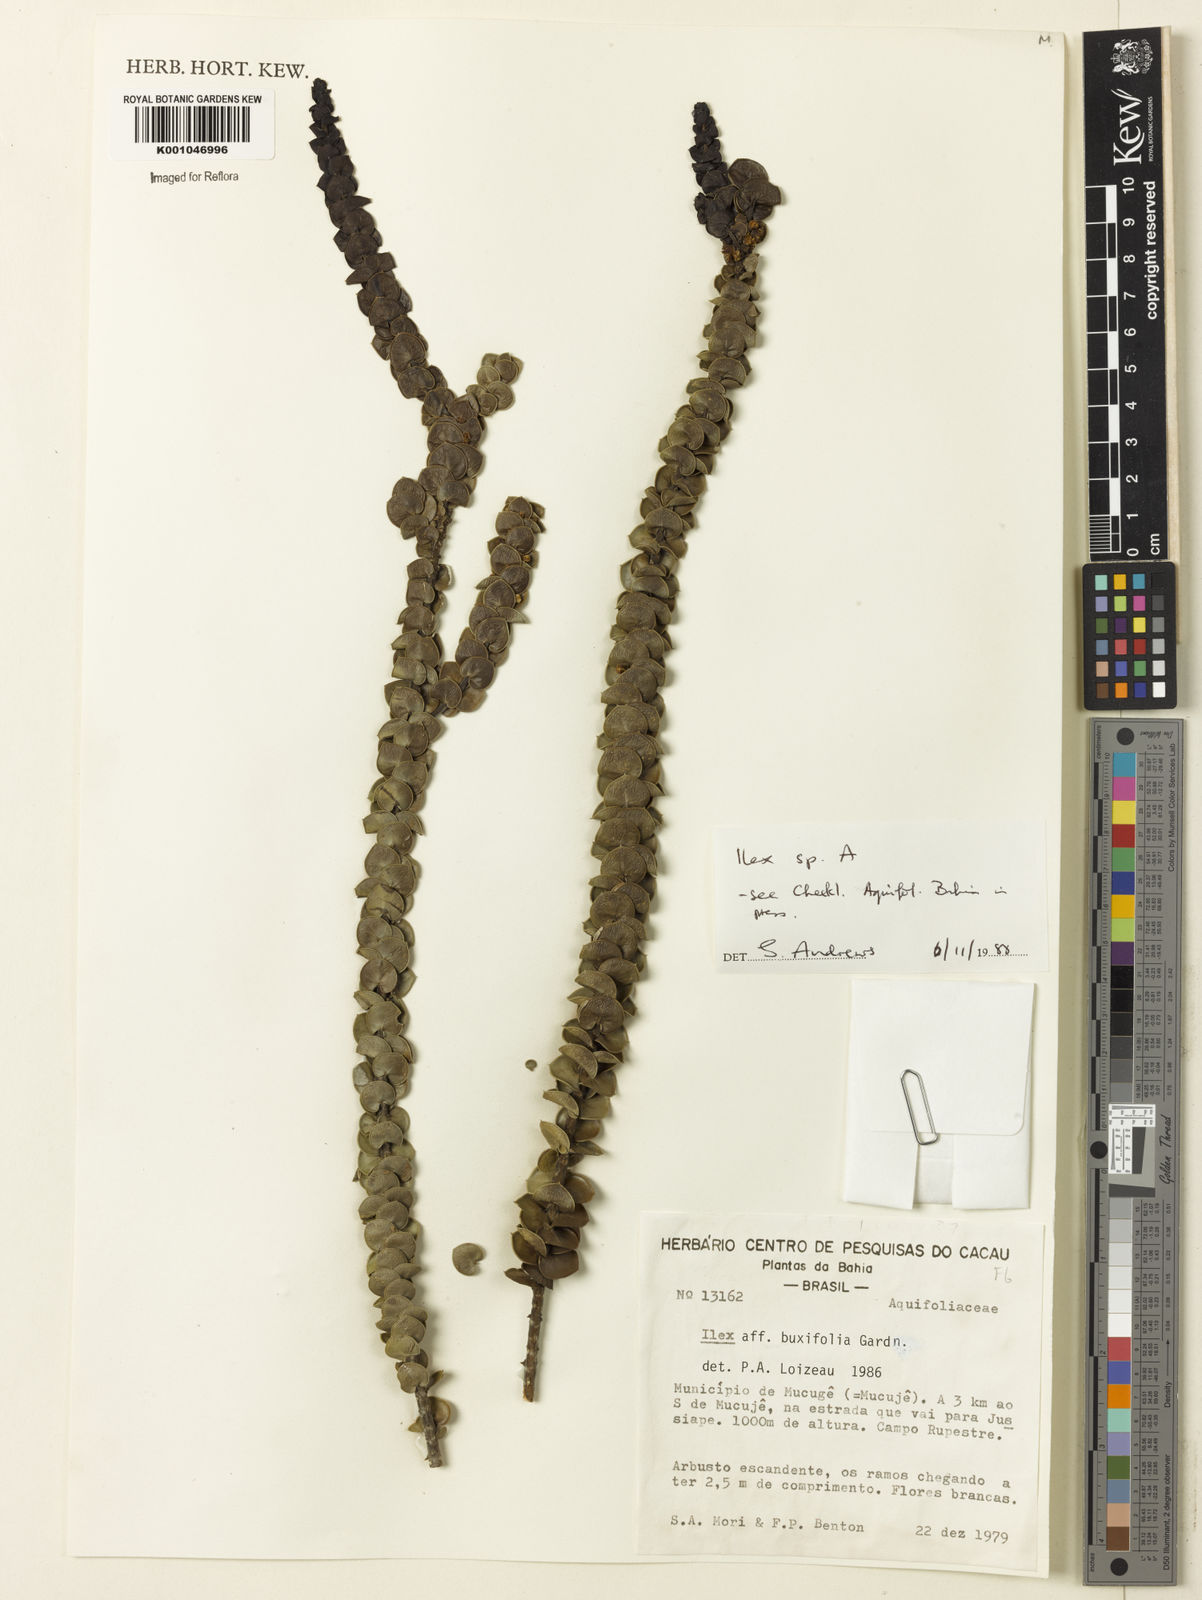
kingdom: Plantae
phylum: Tracheophyta
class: Magnoliopsida
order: Aquifoliales
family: Aquifoliaceae
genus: Ilex
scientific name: Ilex
